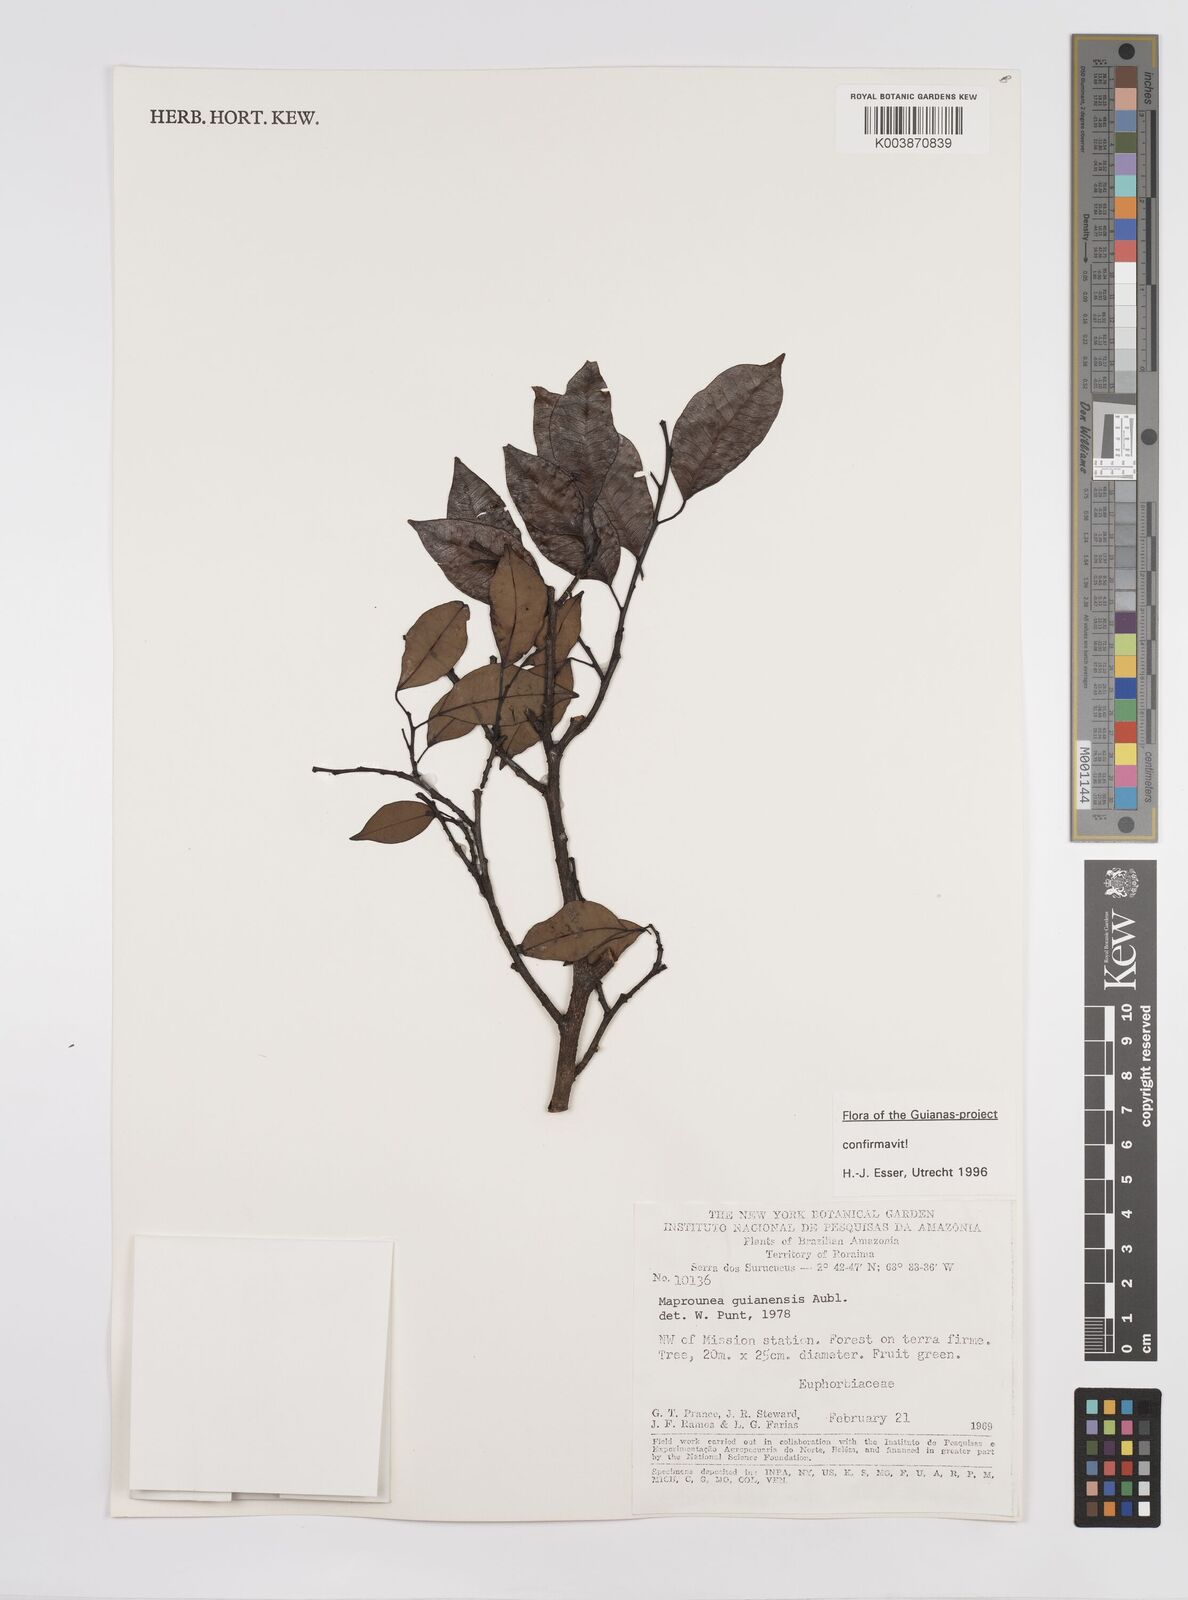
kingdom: Plantae
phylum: Tracheophyta
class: Magnoliopsida
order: Malpighiales
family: Euphorbiaceae
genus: Maprounea
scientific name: Maprounea guianensis
